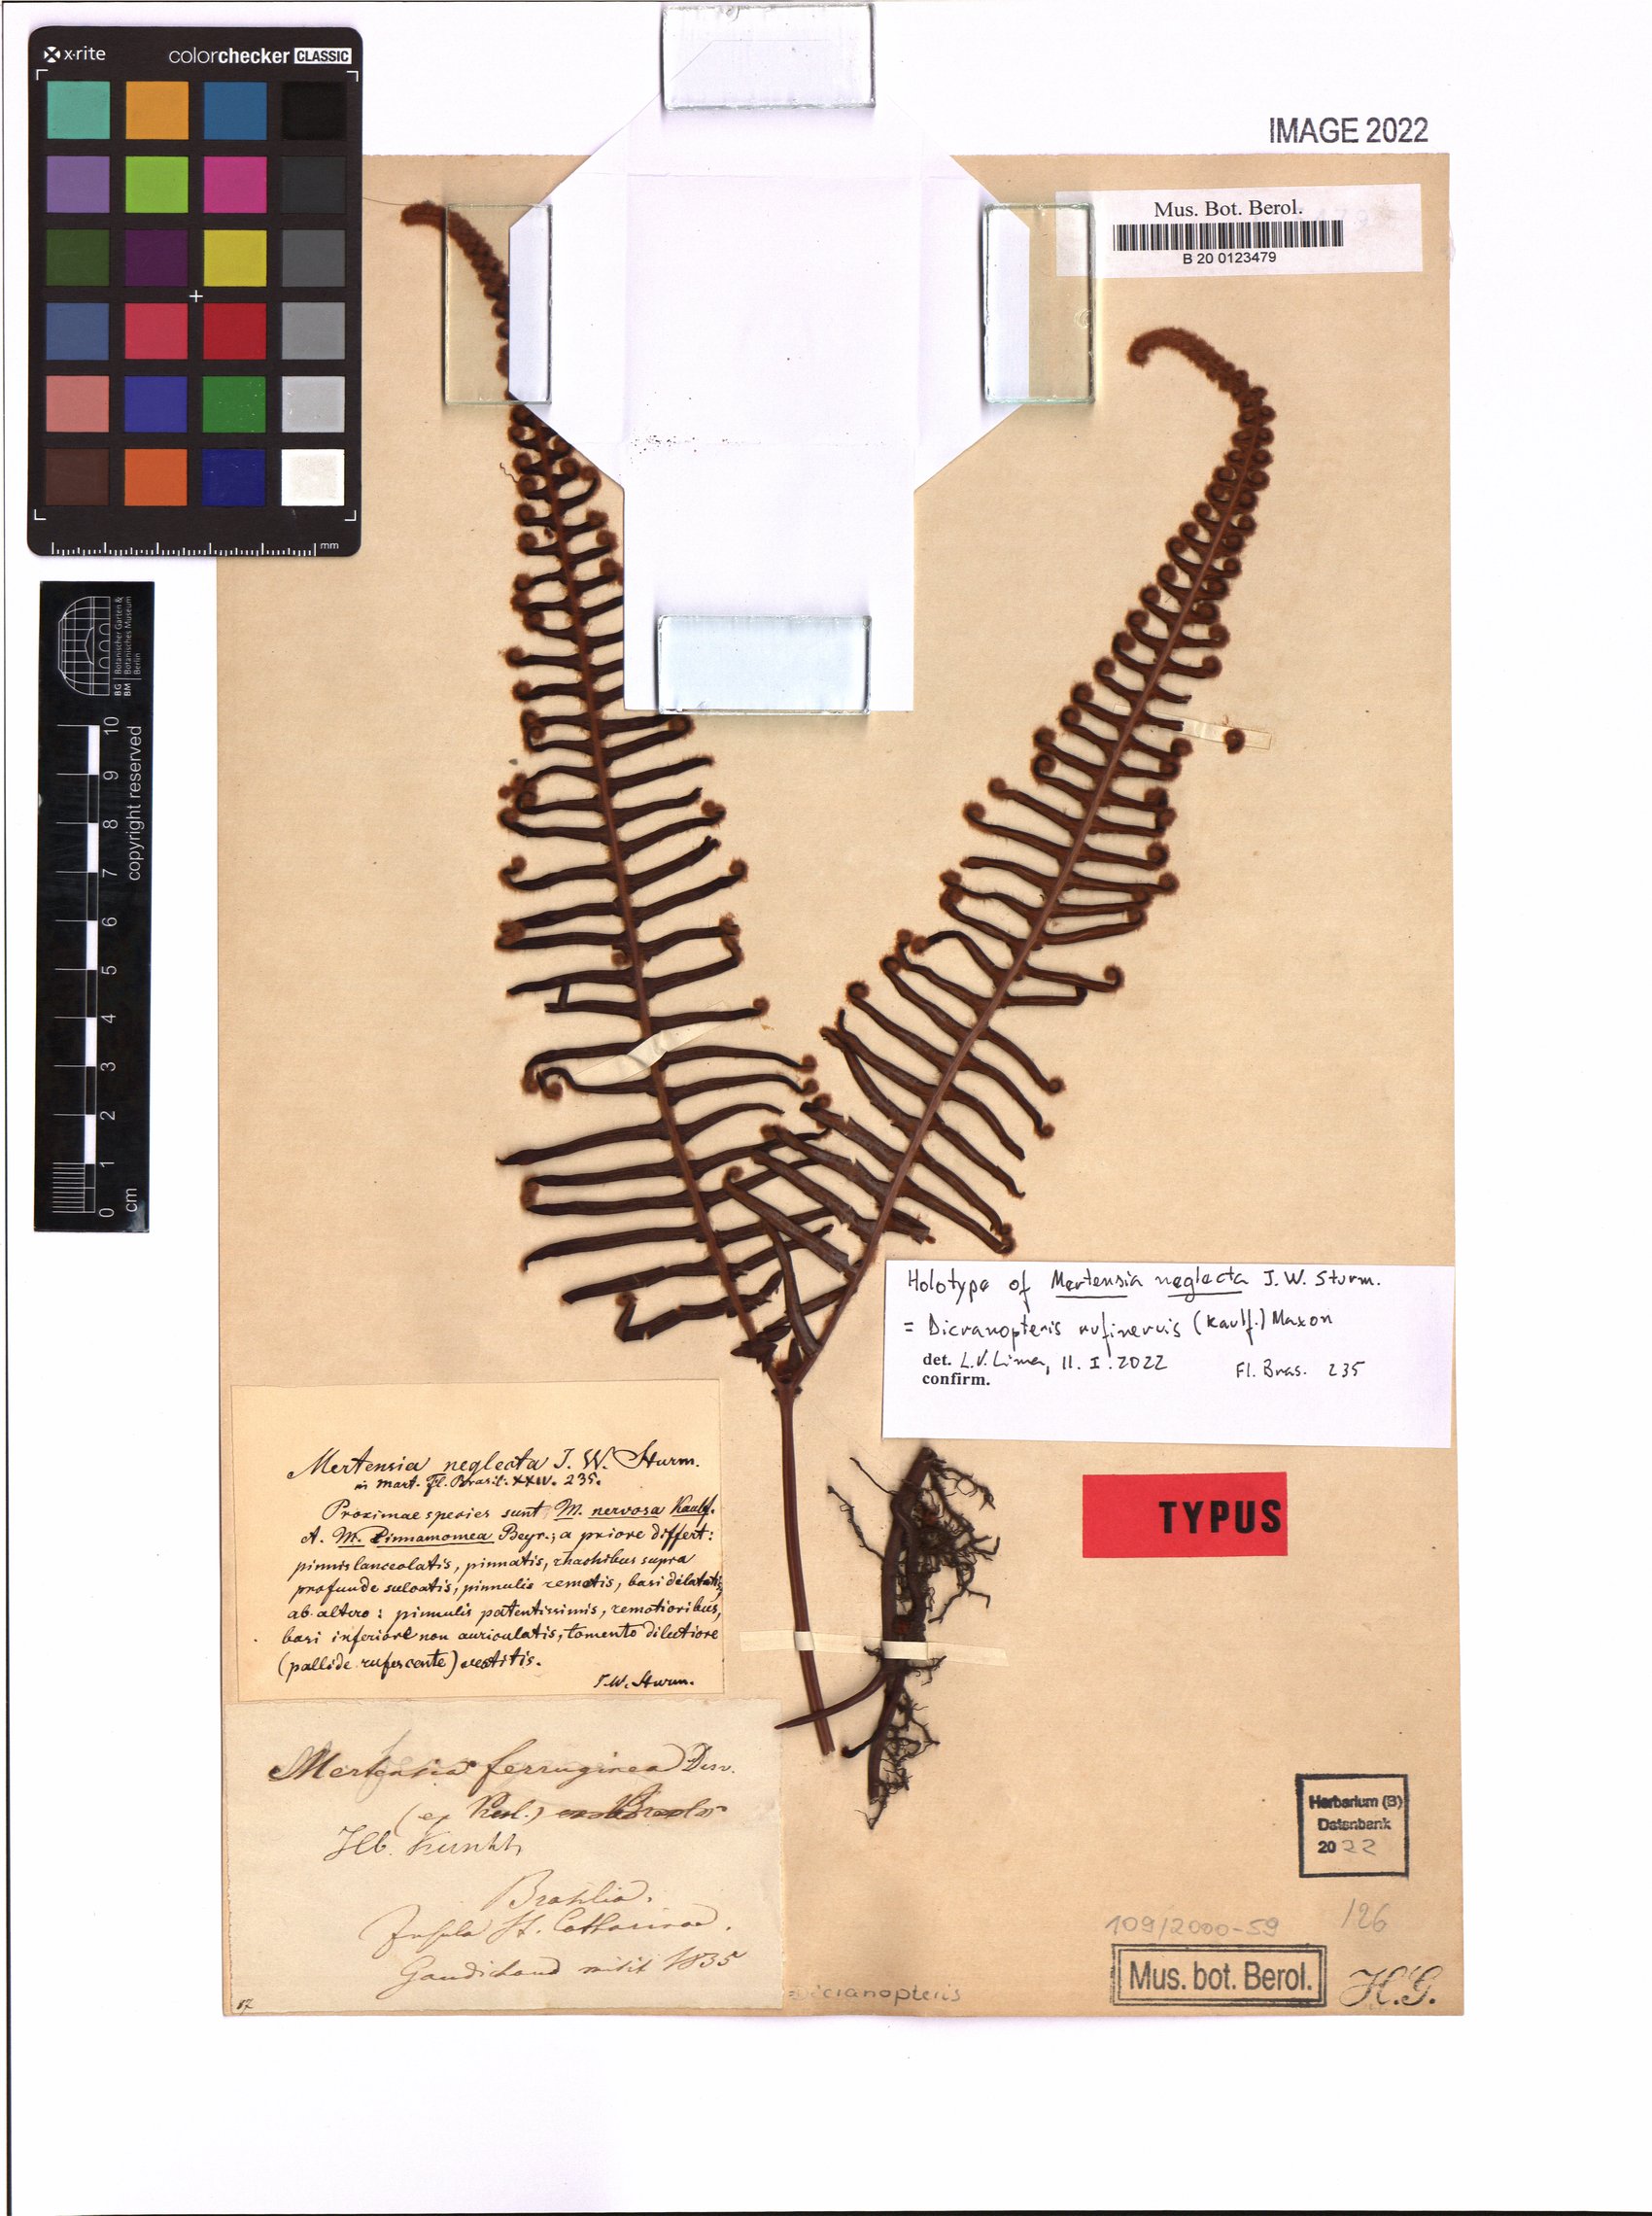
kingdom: Plantae
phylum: Tracheophyta
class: Polypodiopsida
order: Gleicheniales
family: Gleicheniaceae
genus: Dicranopteris
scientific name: Dicranopteris rufinervis
